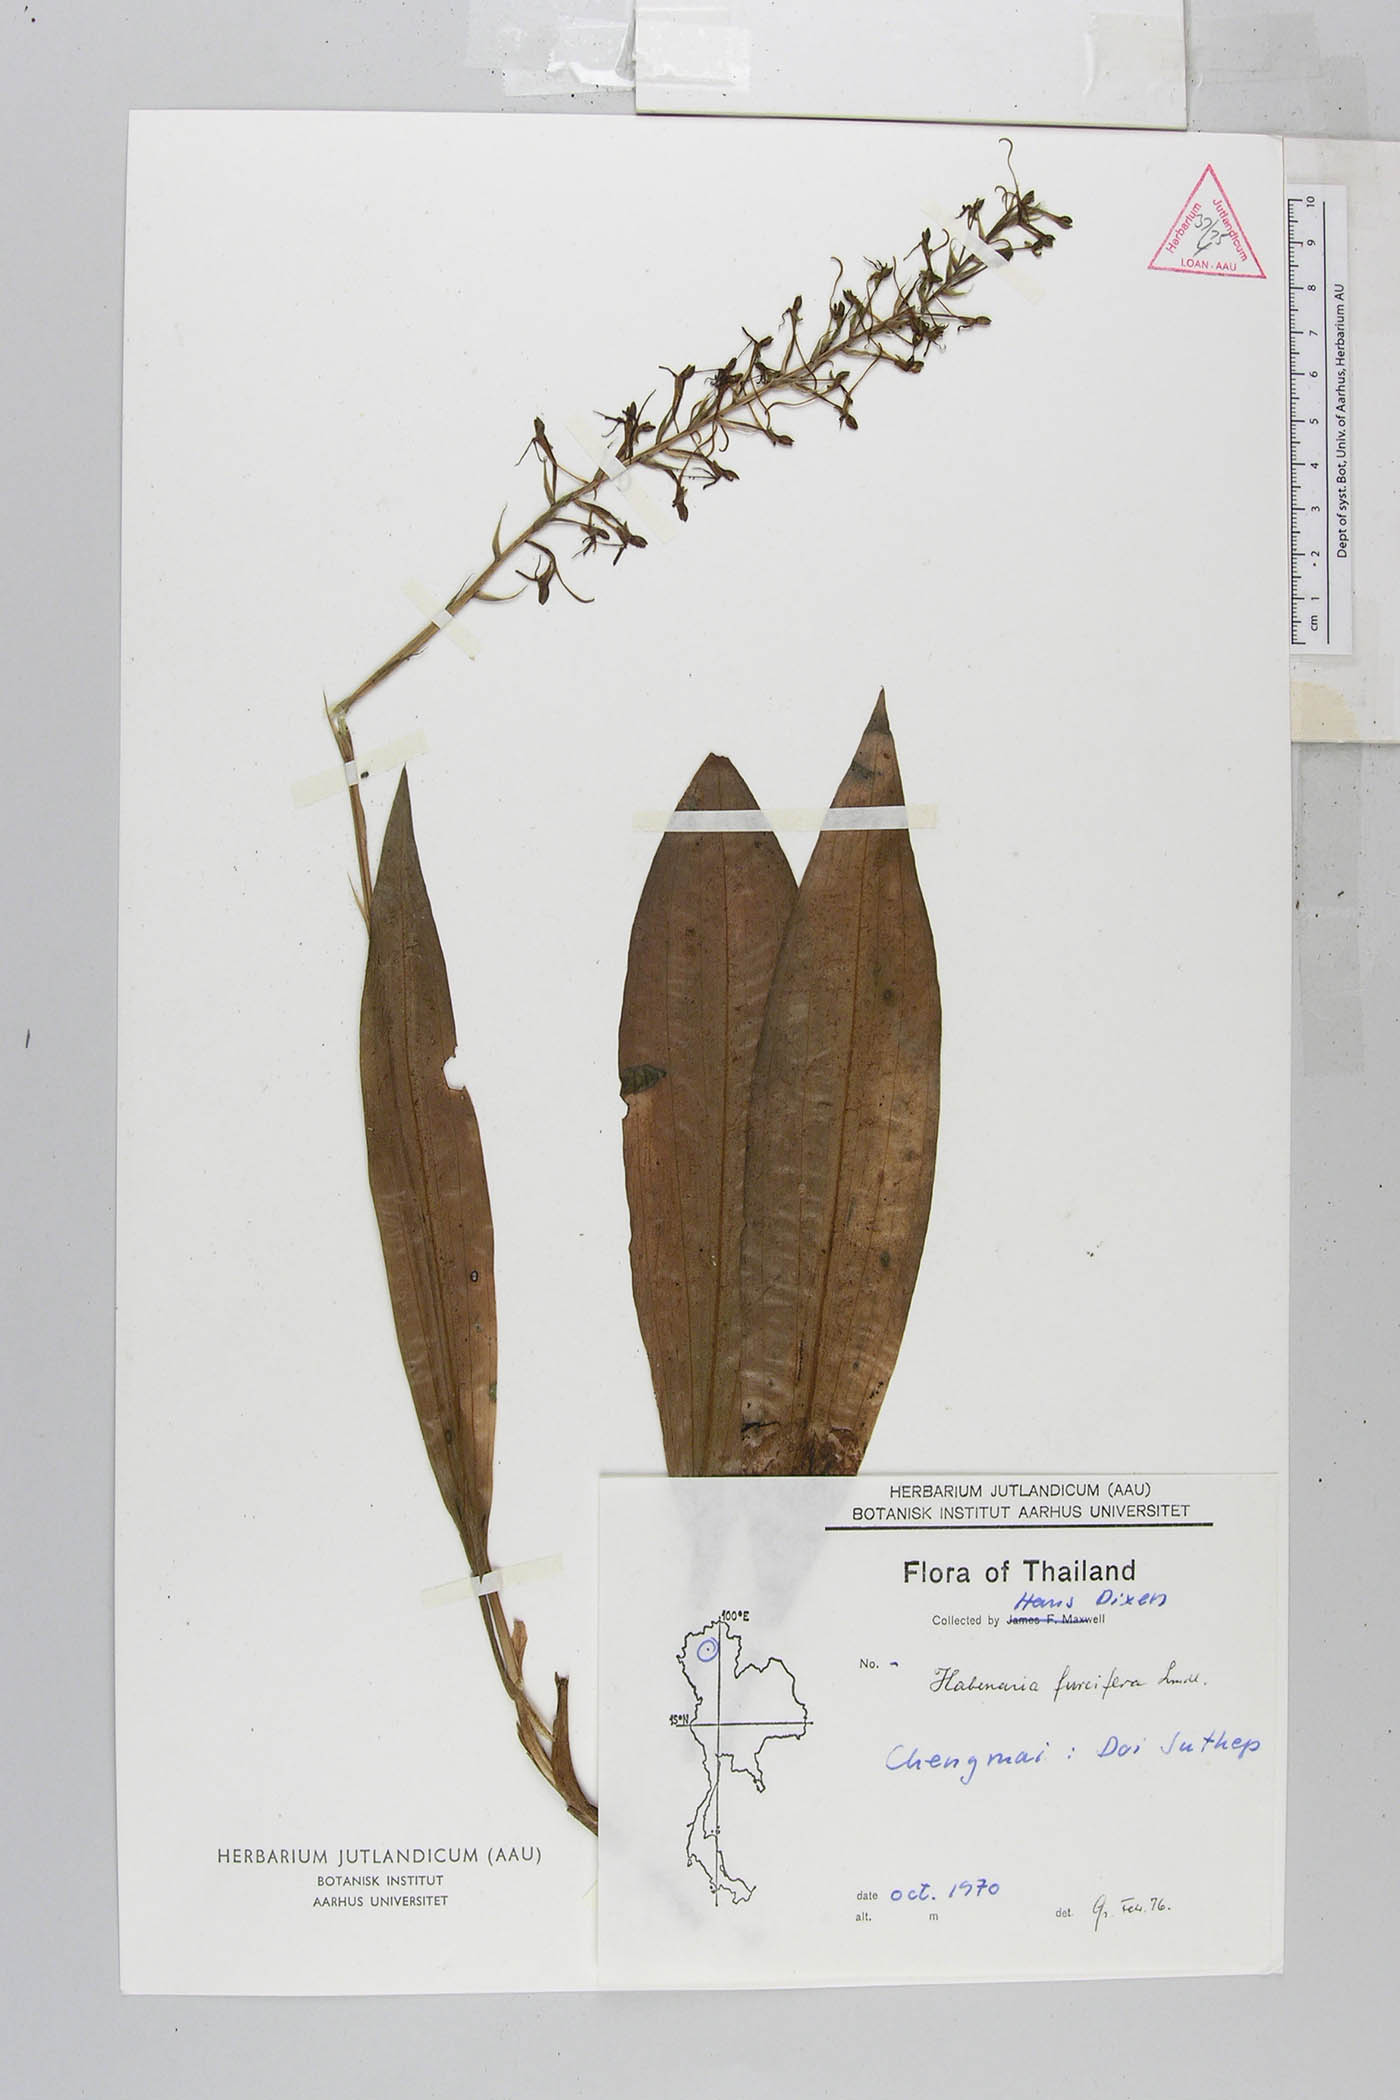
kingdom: Plantae
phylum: Tracheophyta
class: Liliopsida
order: Asparagales
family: Orchidaceae
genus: Habenaria
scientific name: Habenaria furcifera
